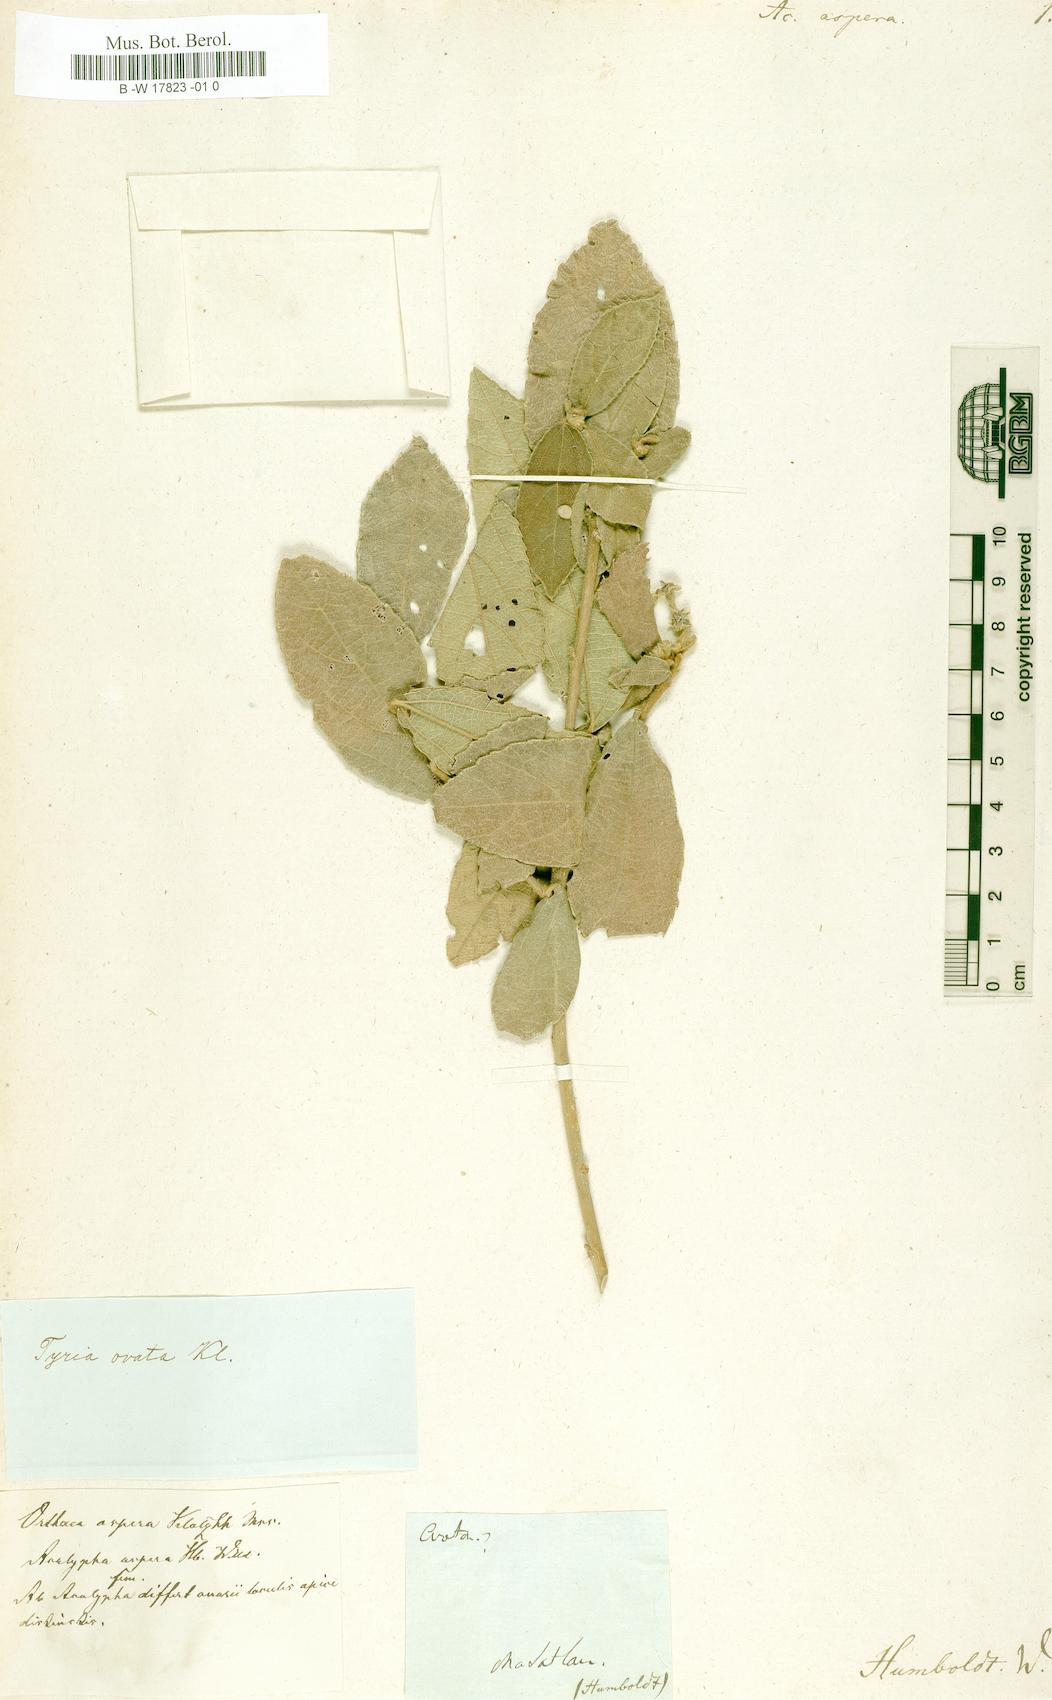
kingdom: Plantae
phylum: Tracheophyta
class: Magnoliopsida
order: Malpighiales
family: Euphorbiaceae
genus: Acalypha
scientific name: Acalypha
